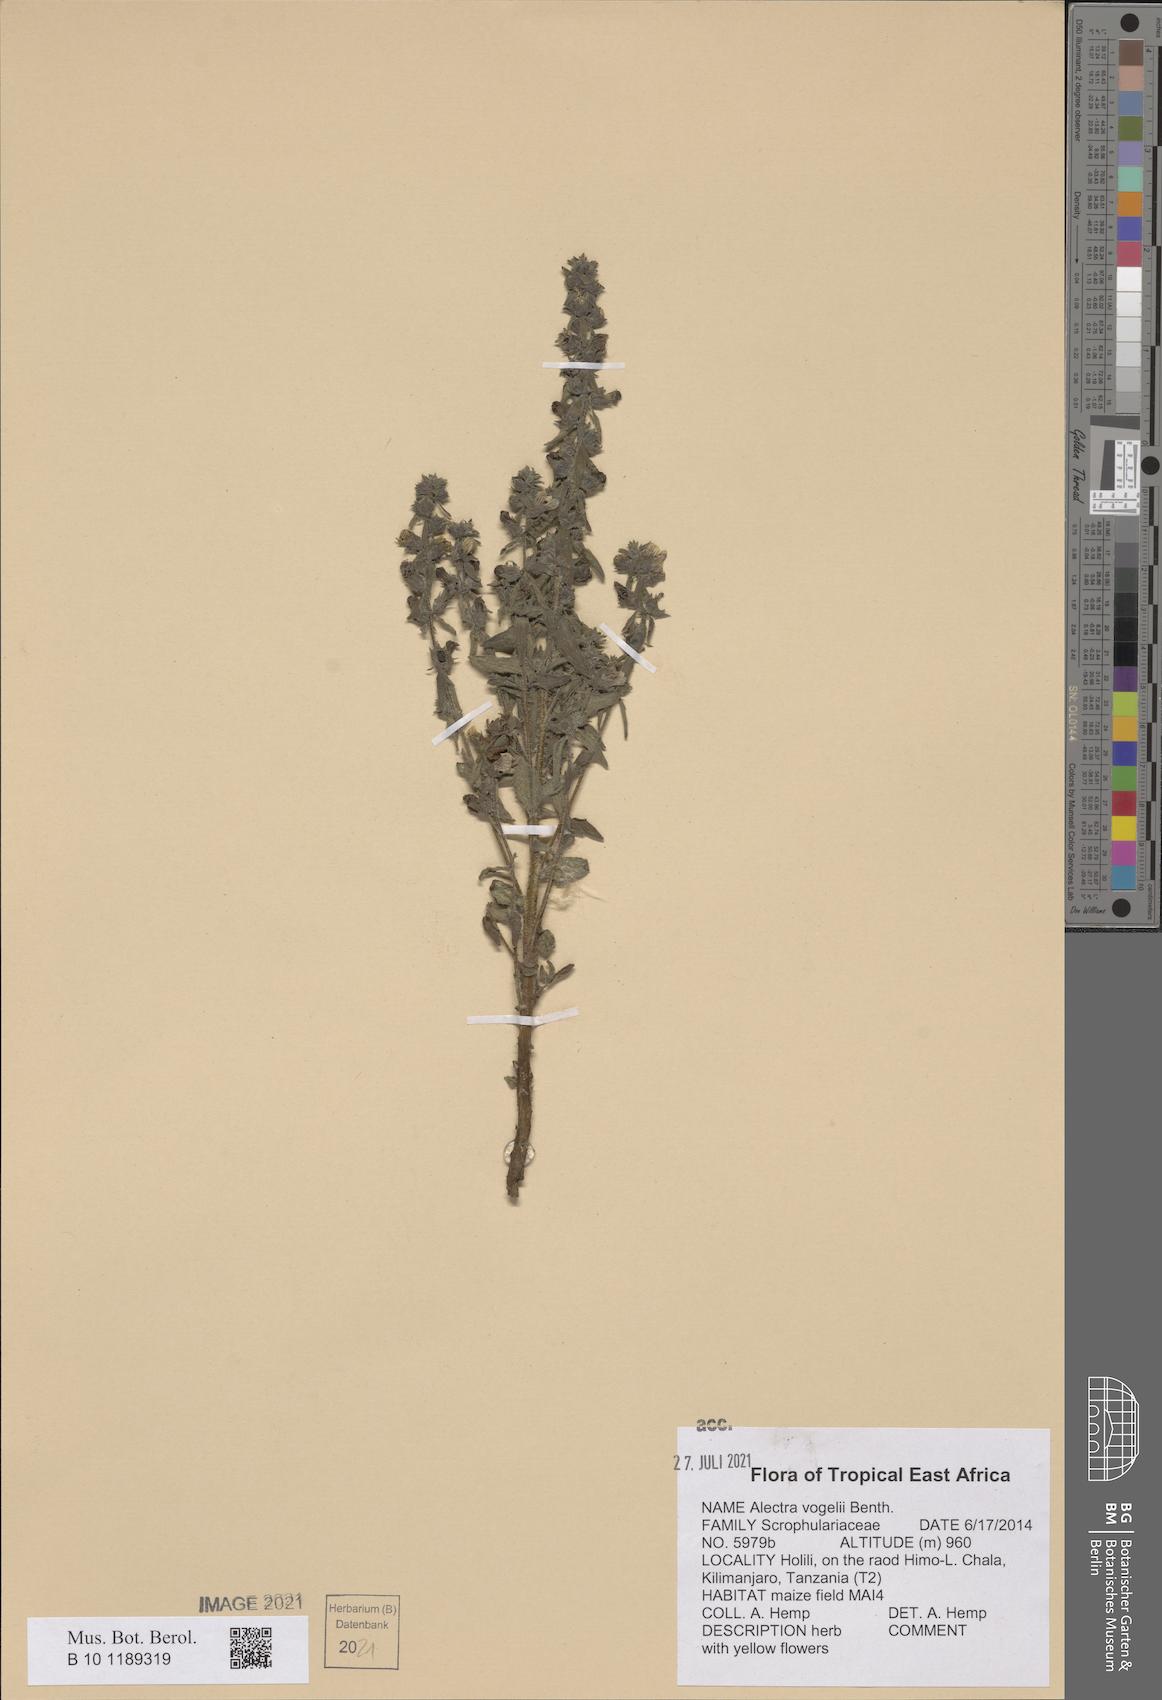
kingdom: Plantae
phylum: Tracheophyta
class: Magnoliopsida
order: Lamiales
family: Orobanchaceae
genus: Alectra
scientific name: Alectra vogelii
